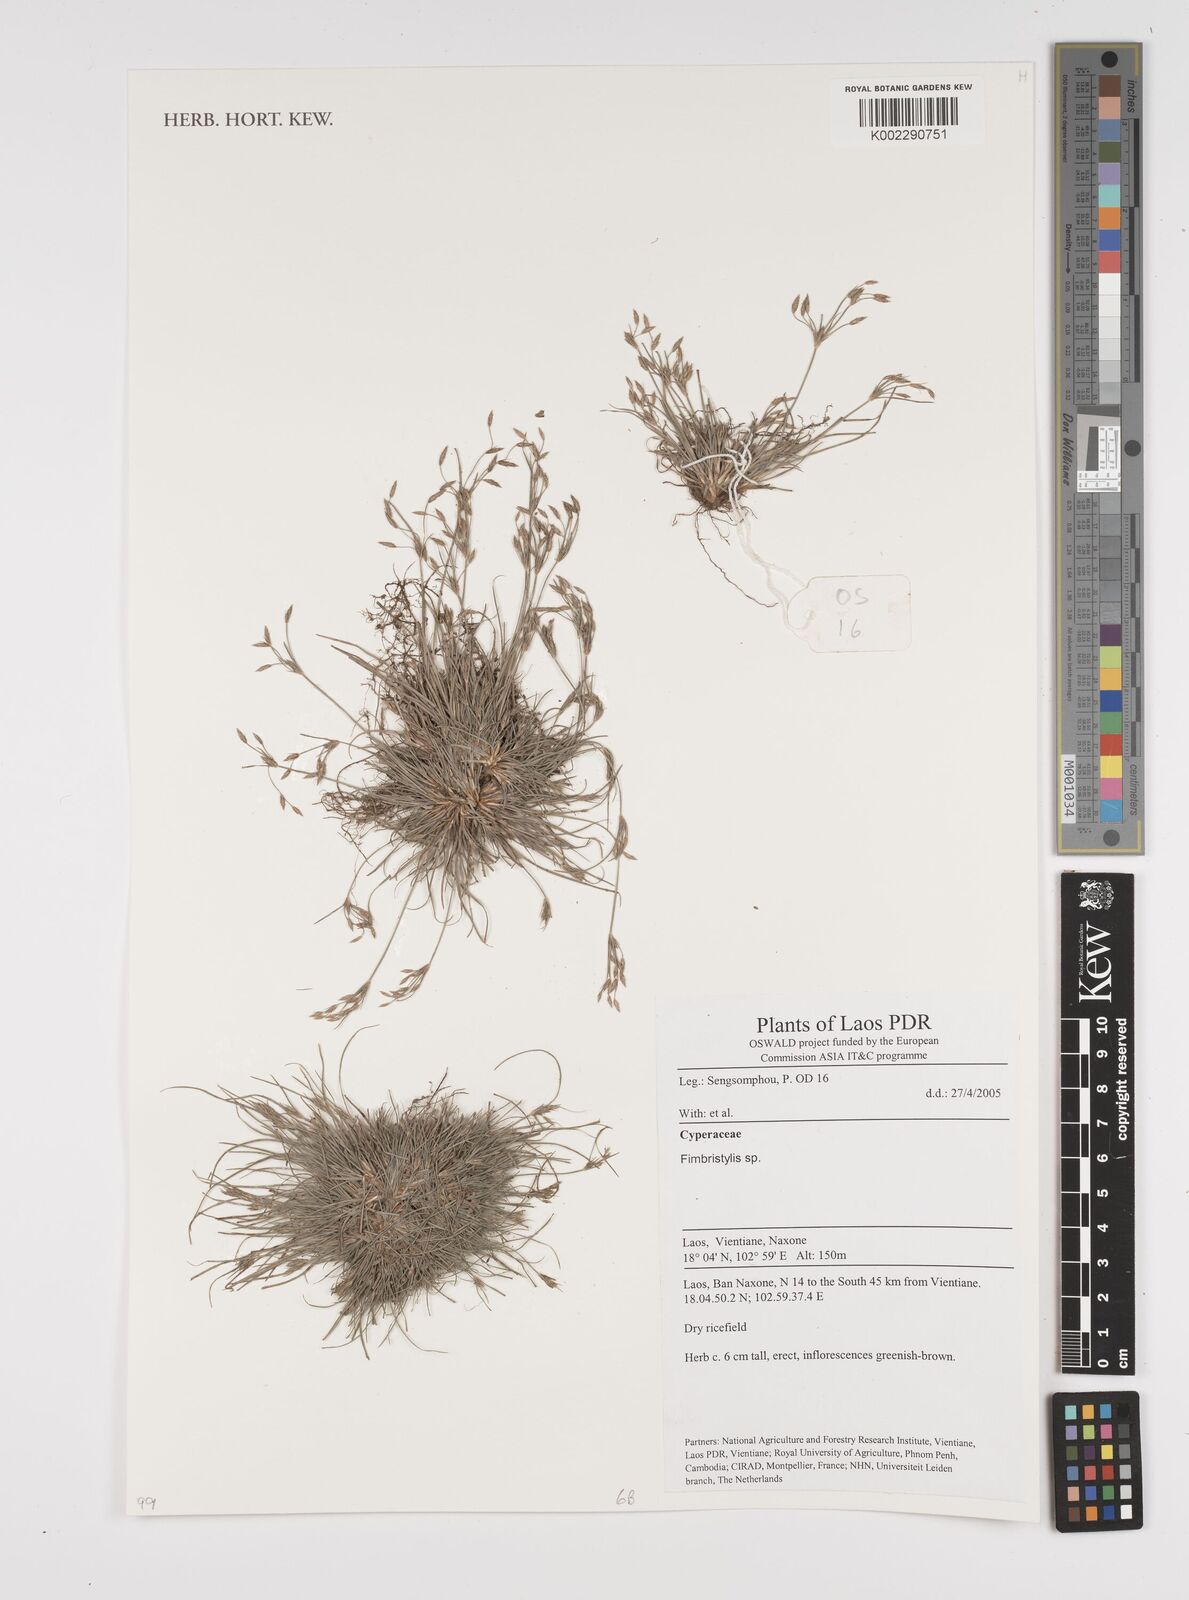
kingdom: Plantae
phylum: Tracheophyta
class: Liliopsida
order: Poales
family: Cyperaceae
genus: Fimbristylis
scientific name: Fimbristylis
